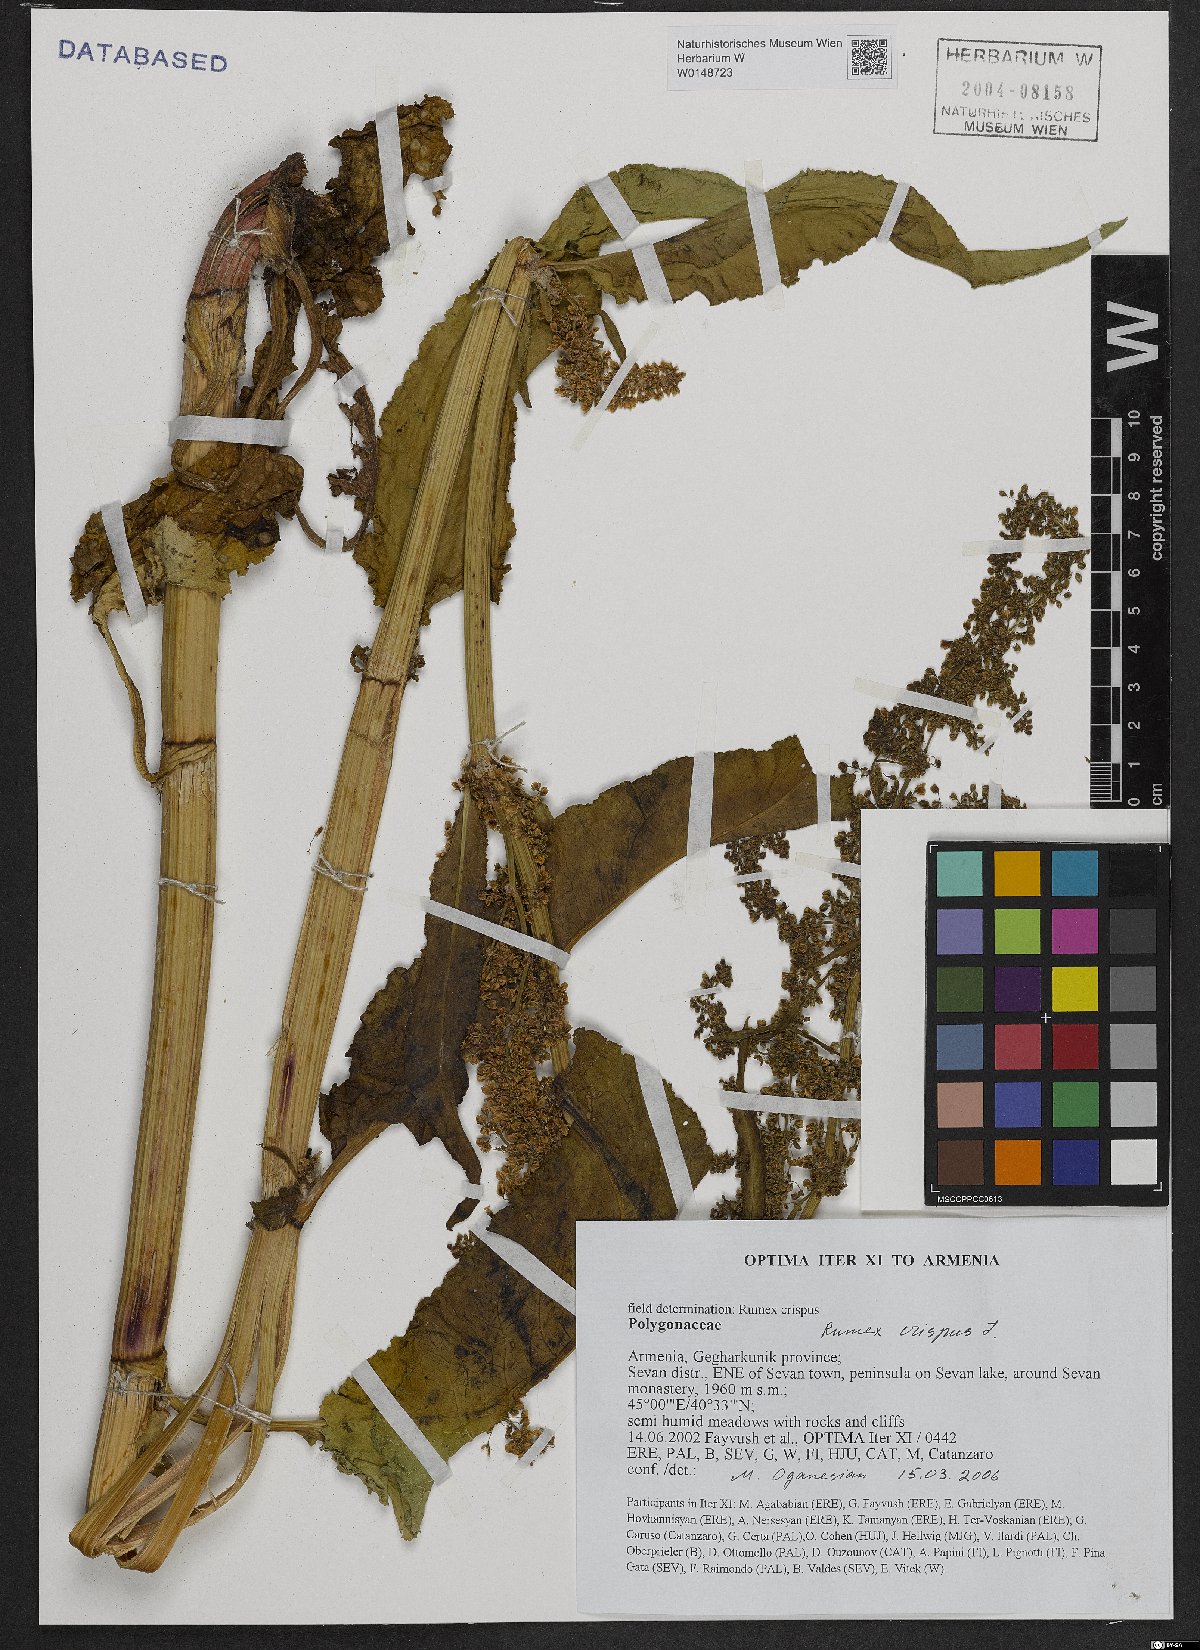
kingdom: Plantae
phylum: Tracheophyta
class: Magnoliopsida
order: Caryophyllales
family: Polygonaceae
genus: Rumex
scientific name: Rumex crispus
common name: Curled dock
